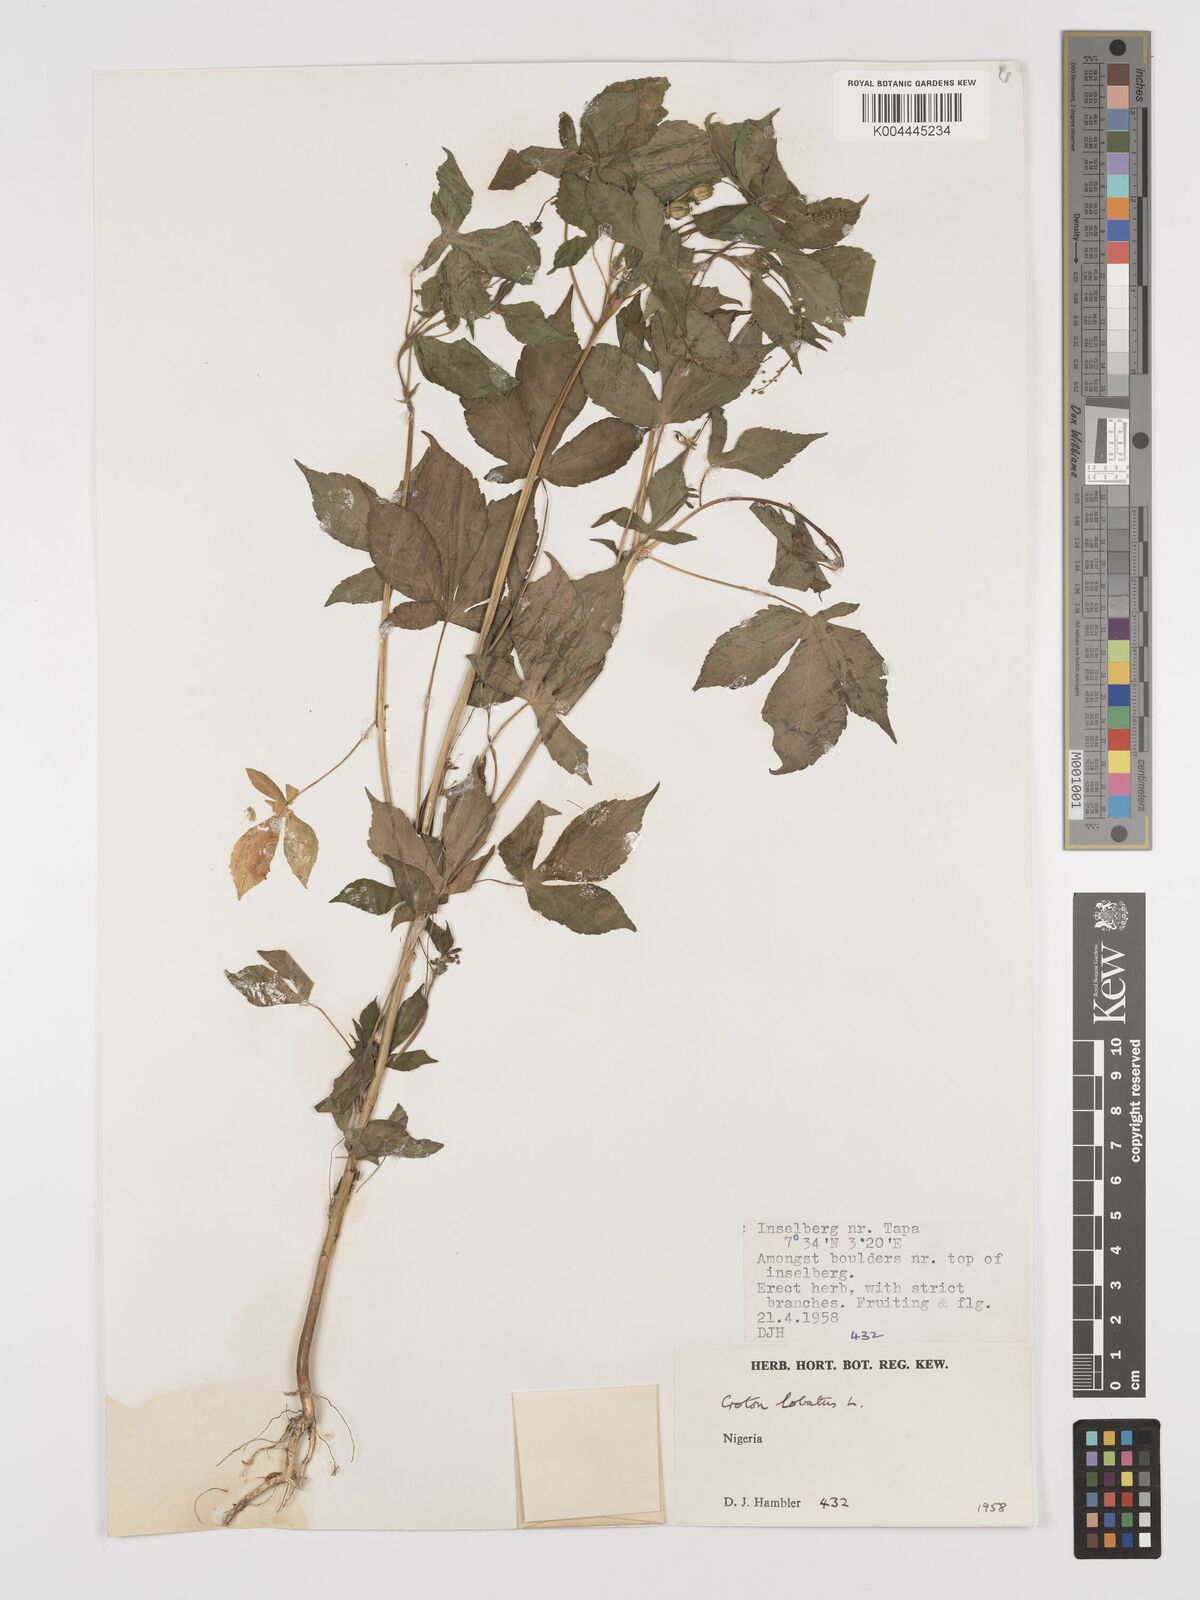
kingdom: Plantae
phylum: Tracheophyta
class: Magnoliopsida
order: Malpighiales
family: Euphorbiaceae
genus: Astraea
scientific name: Astraea lobata
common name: Lobed croton
